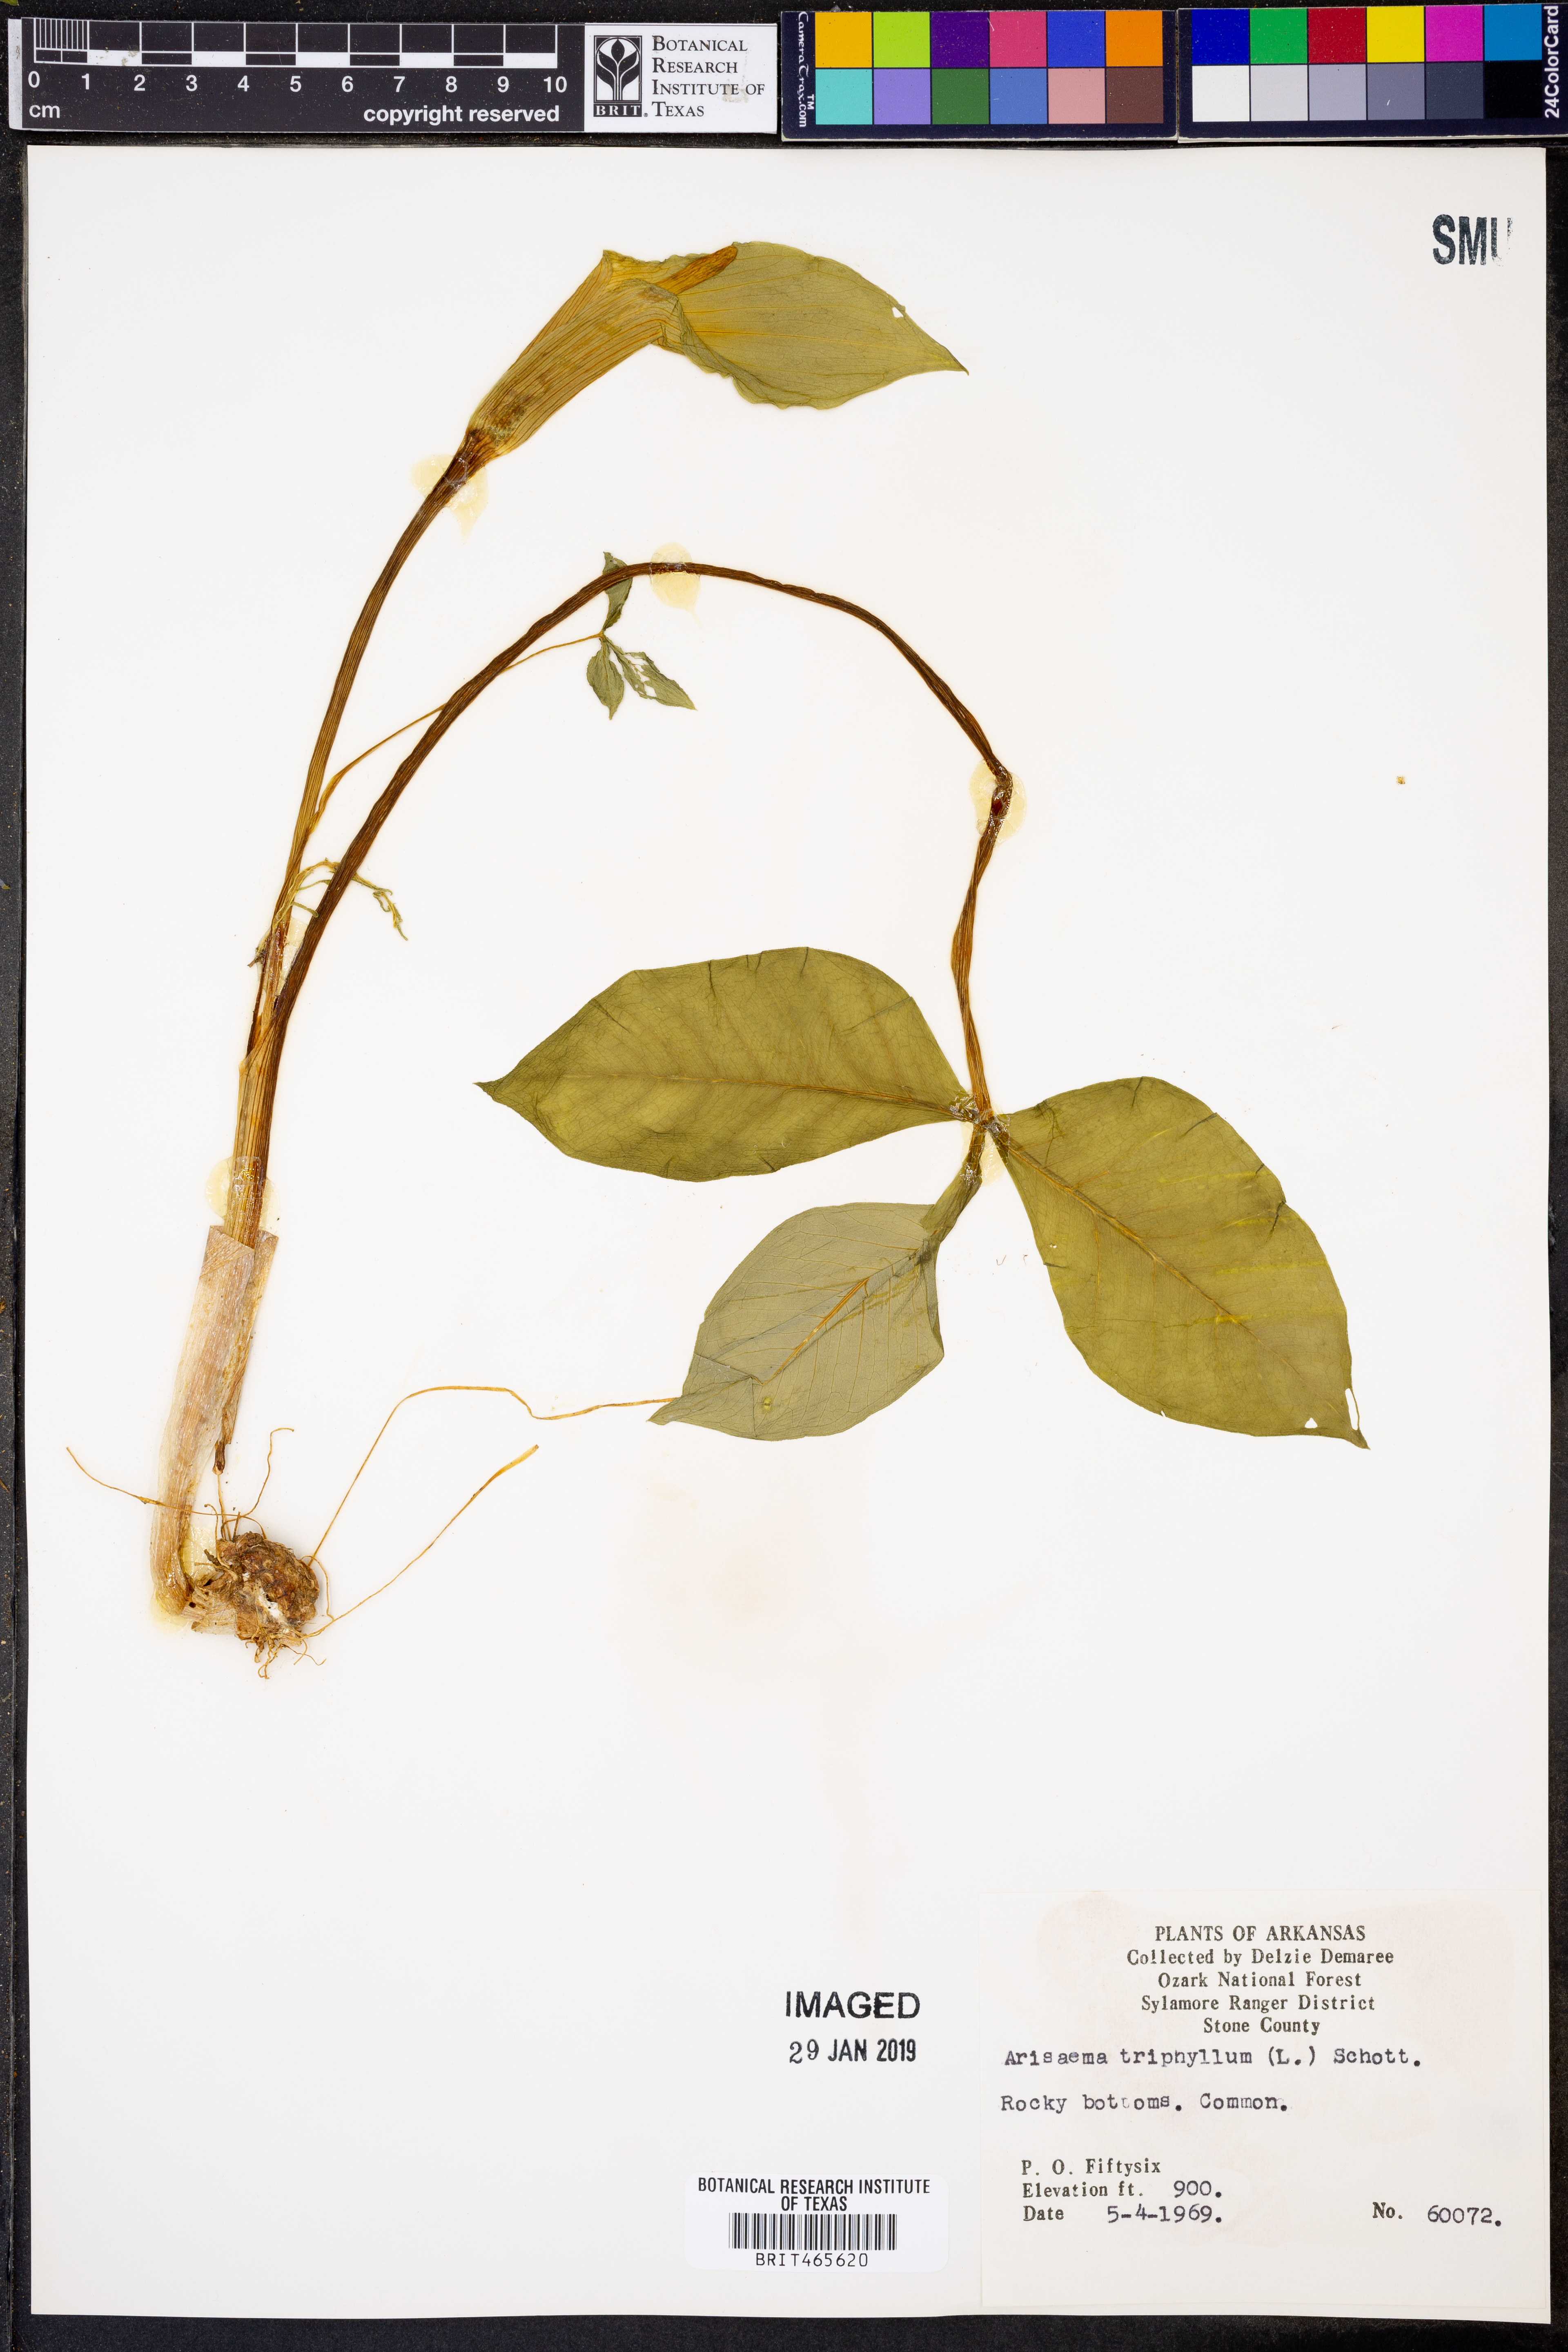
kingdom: Plantae
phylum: Tracheophyta
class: Liliopsida
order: Alismatales
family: Araceae
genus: Arisaema
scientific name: Arisaema triphyllum
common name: Jack-in-the-pulpit
